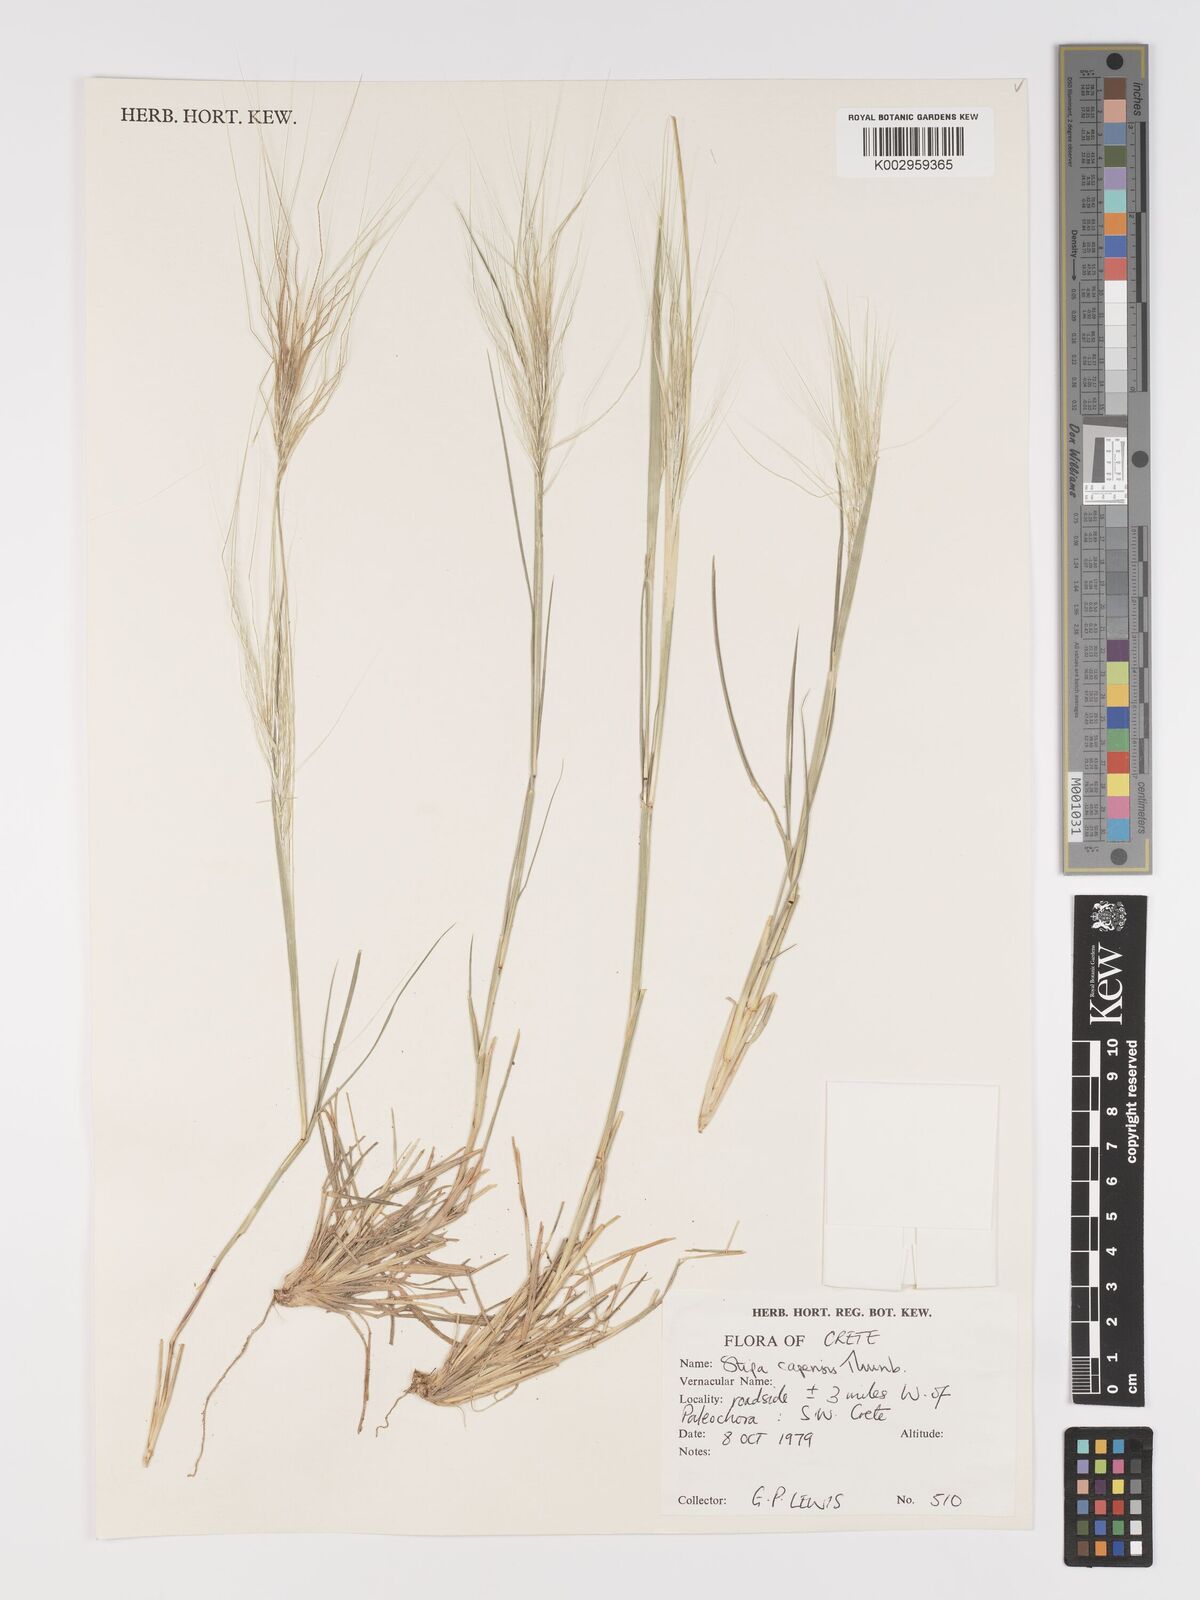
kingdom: Plantae
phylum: Tracheophyta
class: Liliopsida
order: Poales
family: Poaceae
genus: Stipellula
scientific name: Stipellula capensis
